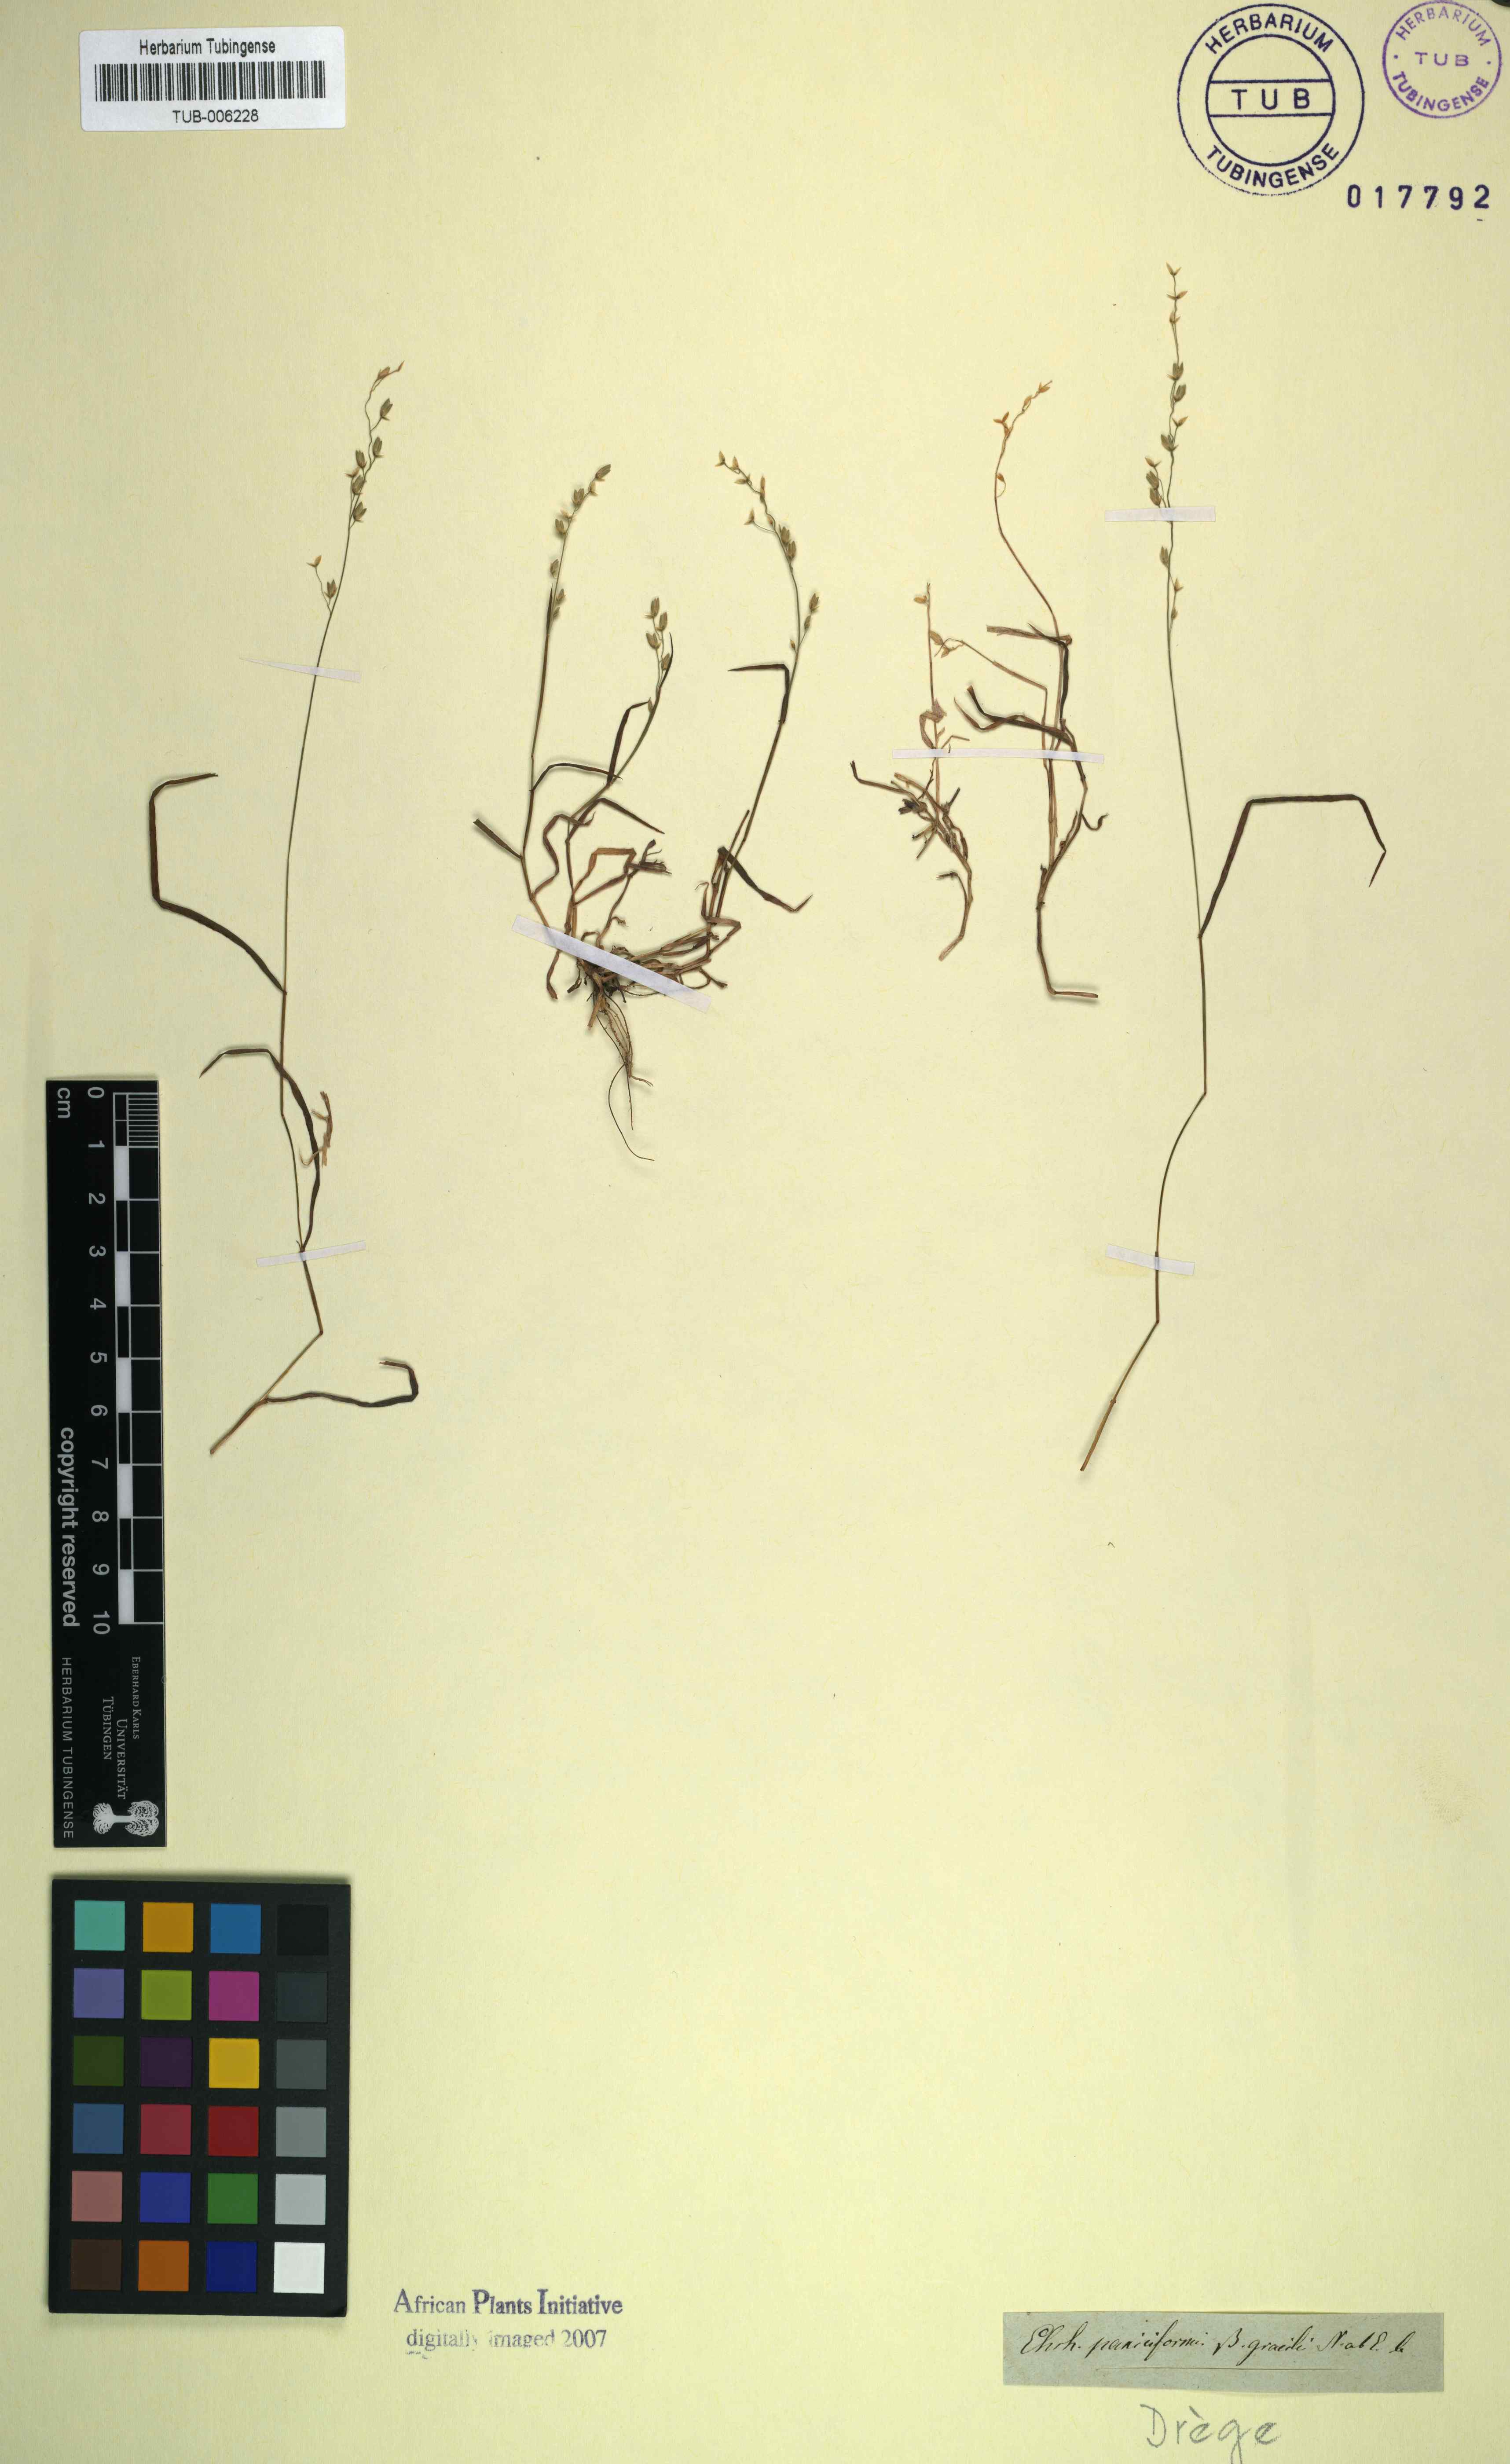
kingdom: Plantae
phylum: Tracheophyta
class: Liliopsida
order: Poales
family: Poaceae
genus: Ehrharta
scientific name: Ehrharta erecta
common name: Panic veldtgrass
